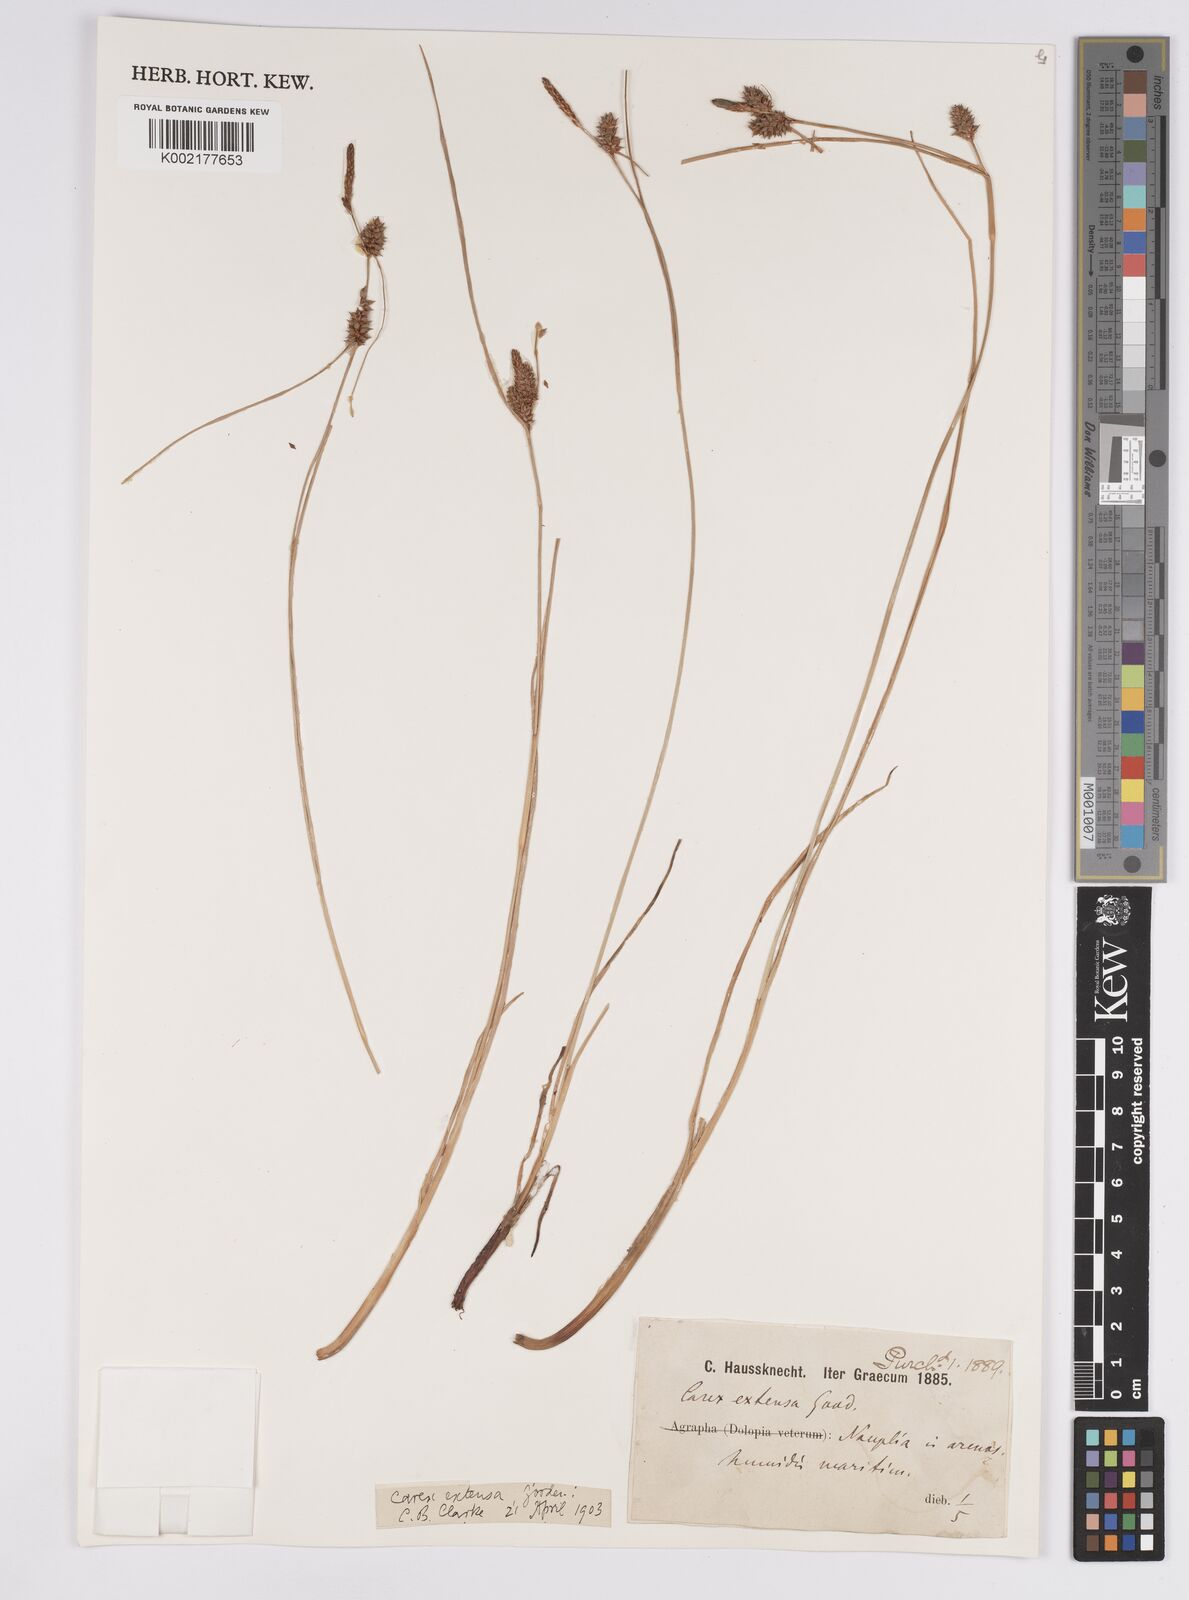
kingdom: Plantae
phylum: Tracheophyta
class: Liliopsida
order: Poales
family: Cyperaceae
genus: Carex
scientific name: Carex extensa
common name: Long-bracted sedge
